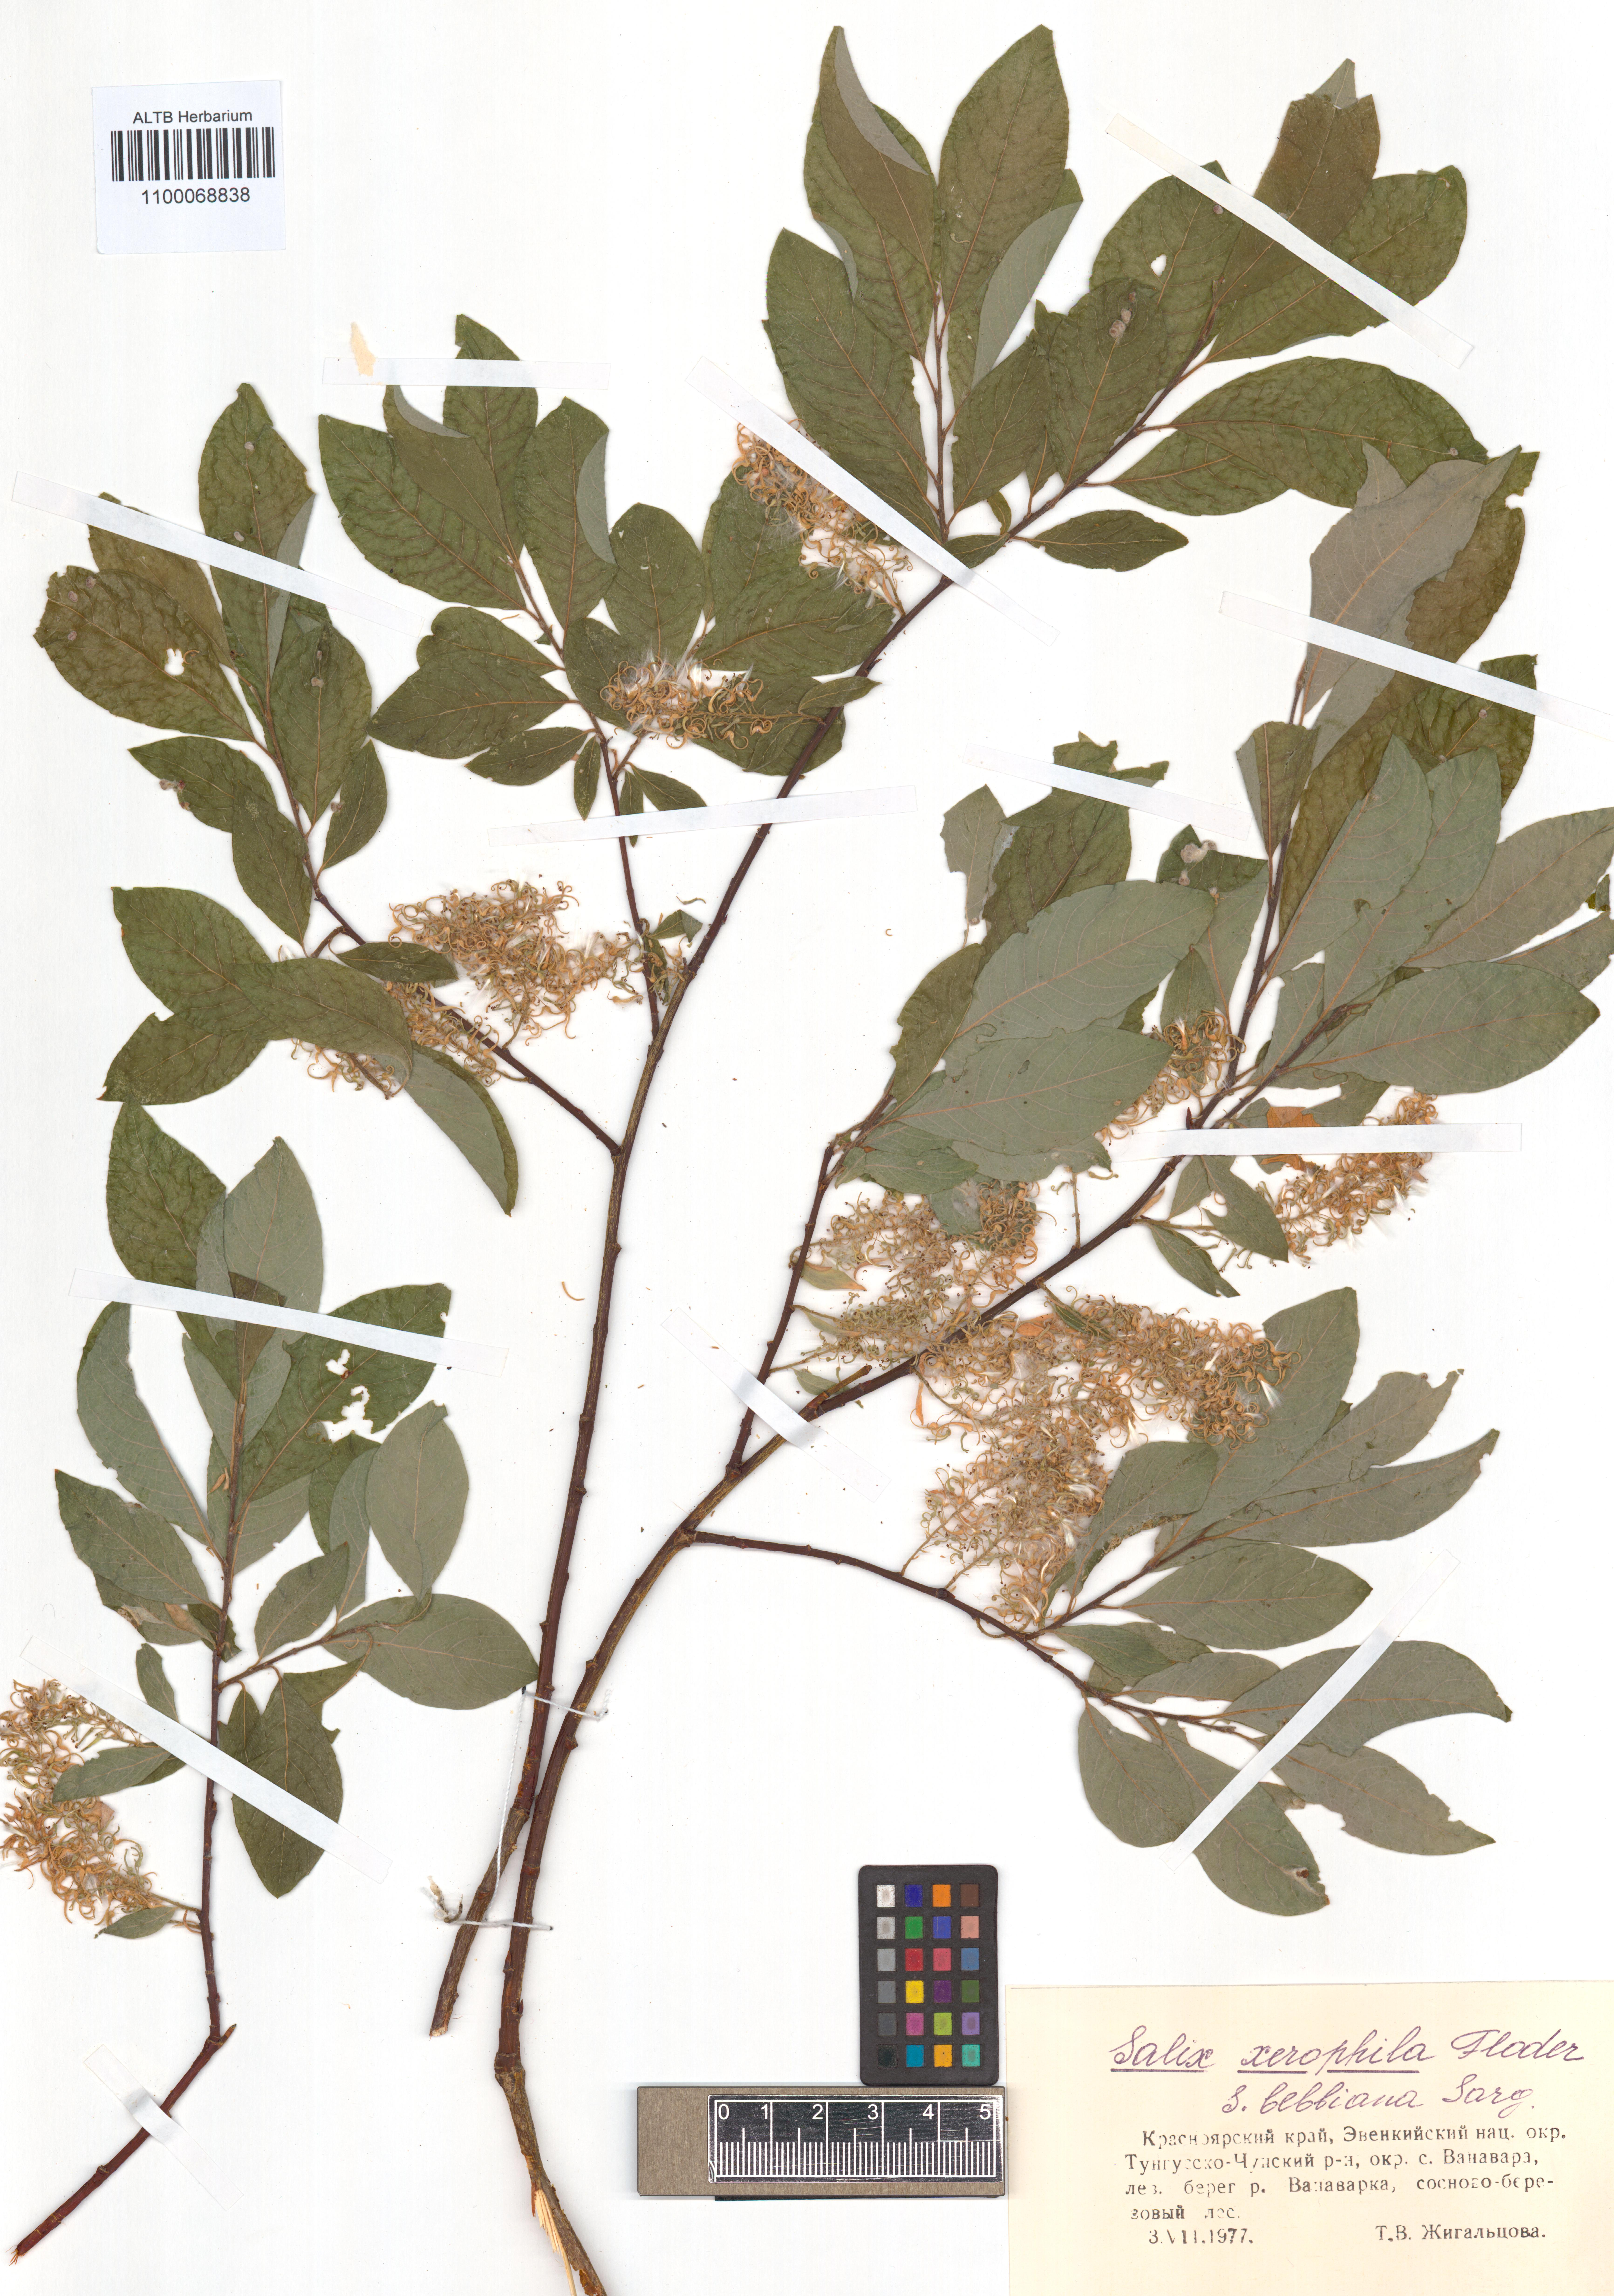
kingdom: Plantae
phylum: Tracheophyta
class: Magnoliopsida
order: Malpighiales
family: Salicaceae
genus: Salix
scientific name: Salix bebbiana
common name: Bebb's willow
